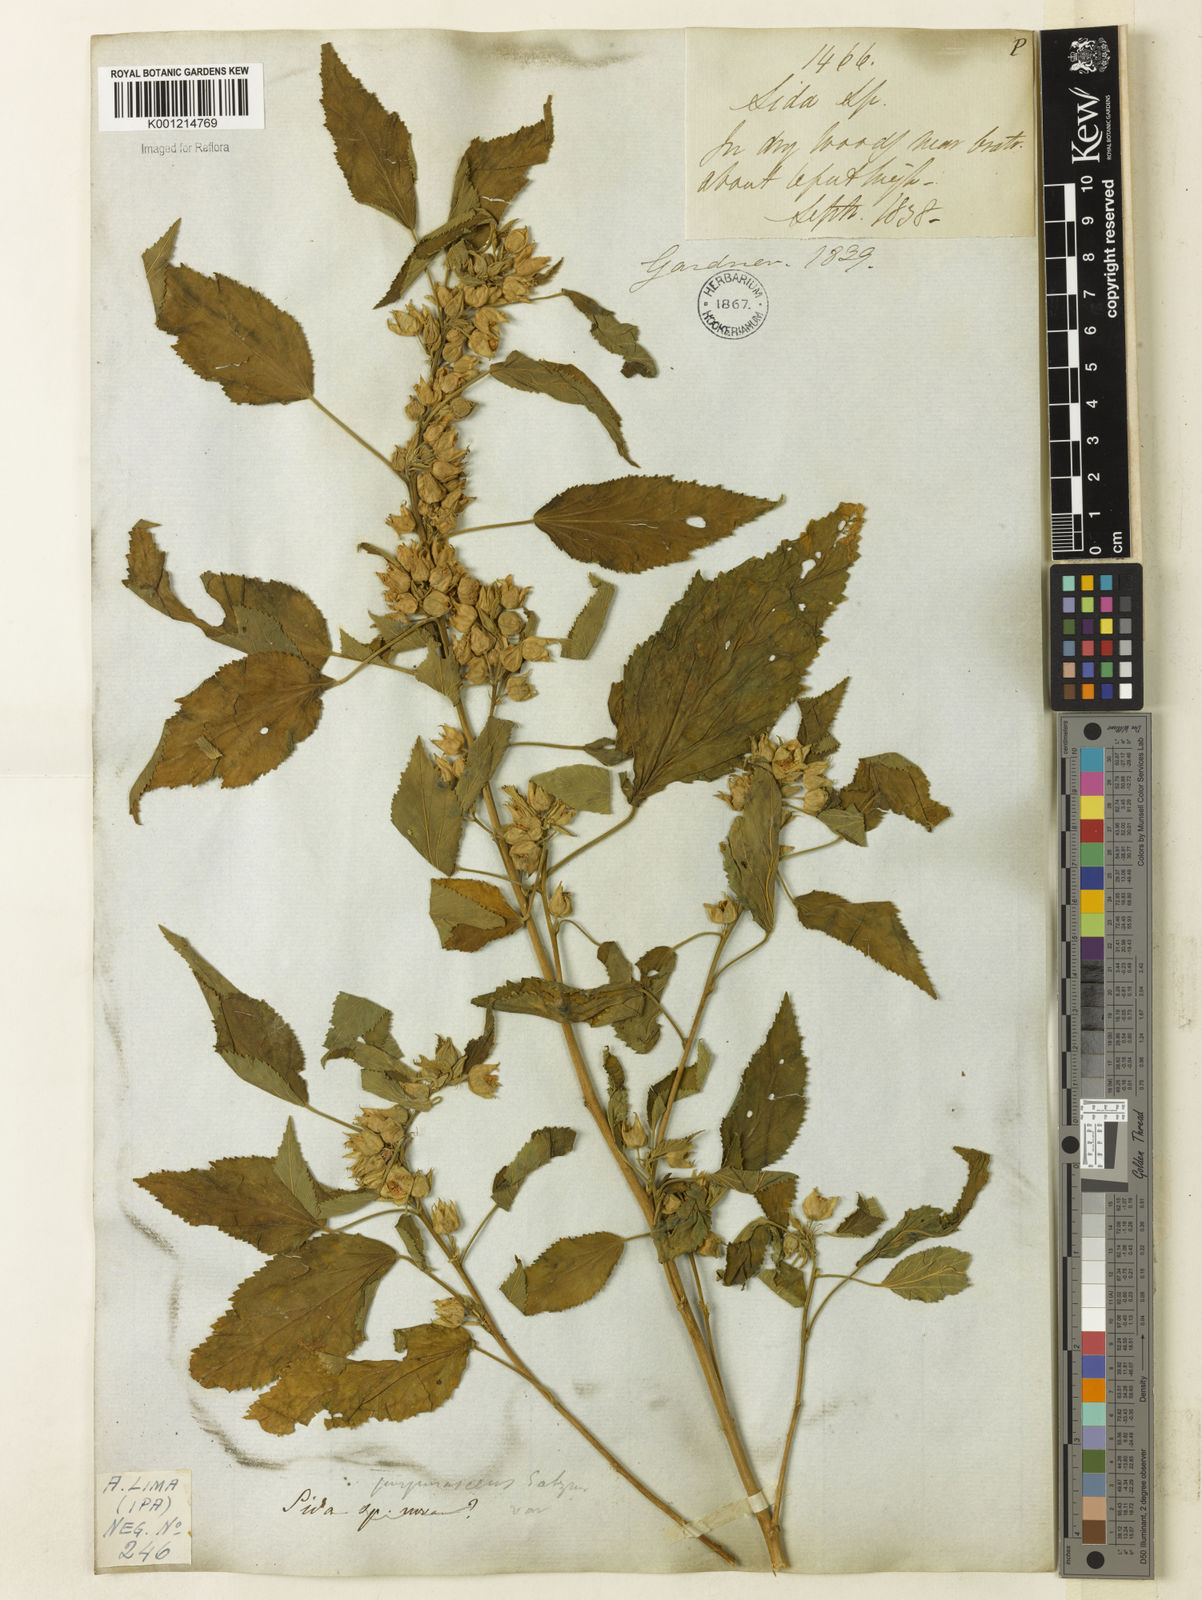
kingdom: Plantae
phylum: Tracheophyta
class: Magnoliopsida
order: Malvales
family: Malvaceae
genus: Sida
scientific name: Sida ulei
